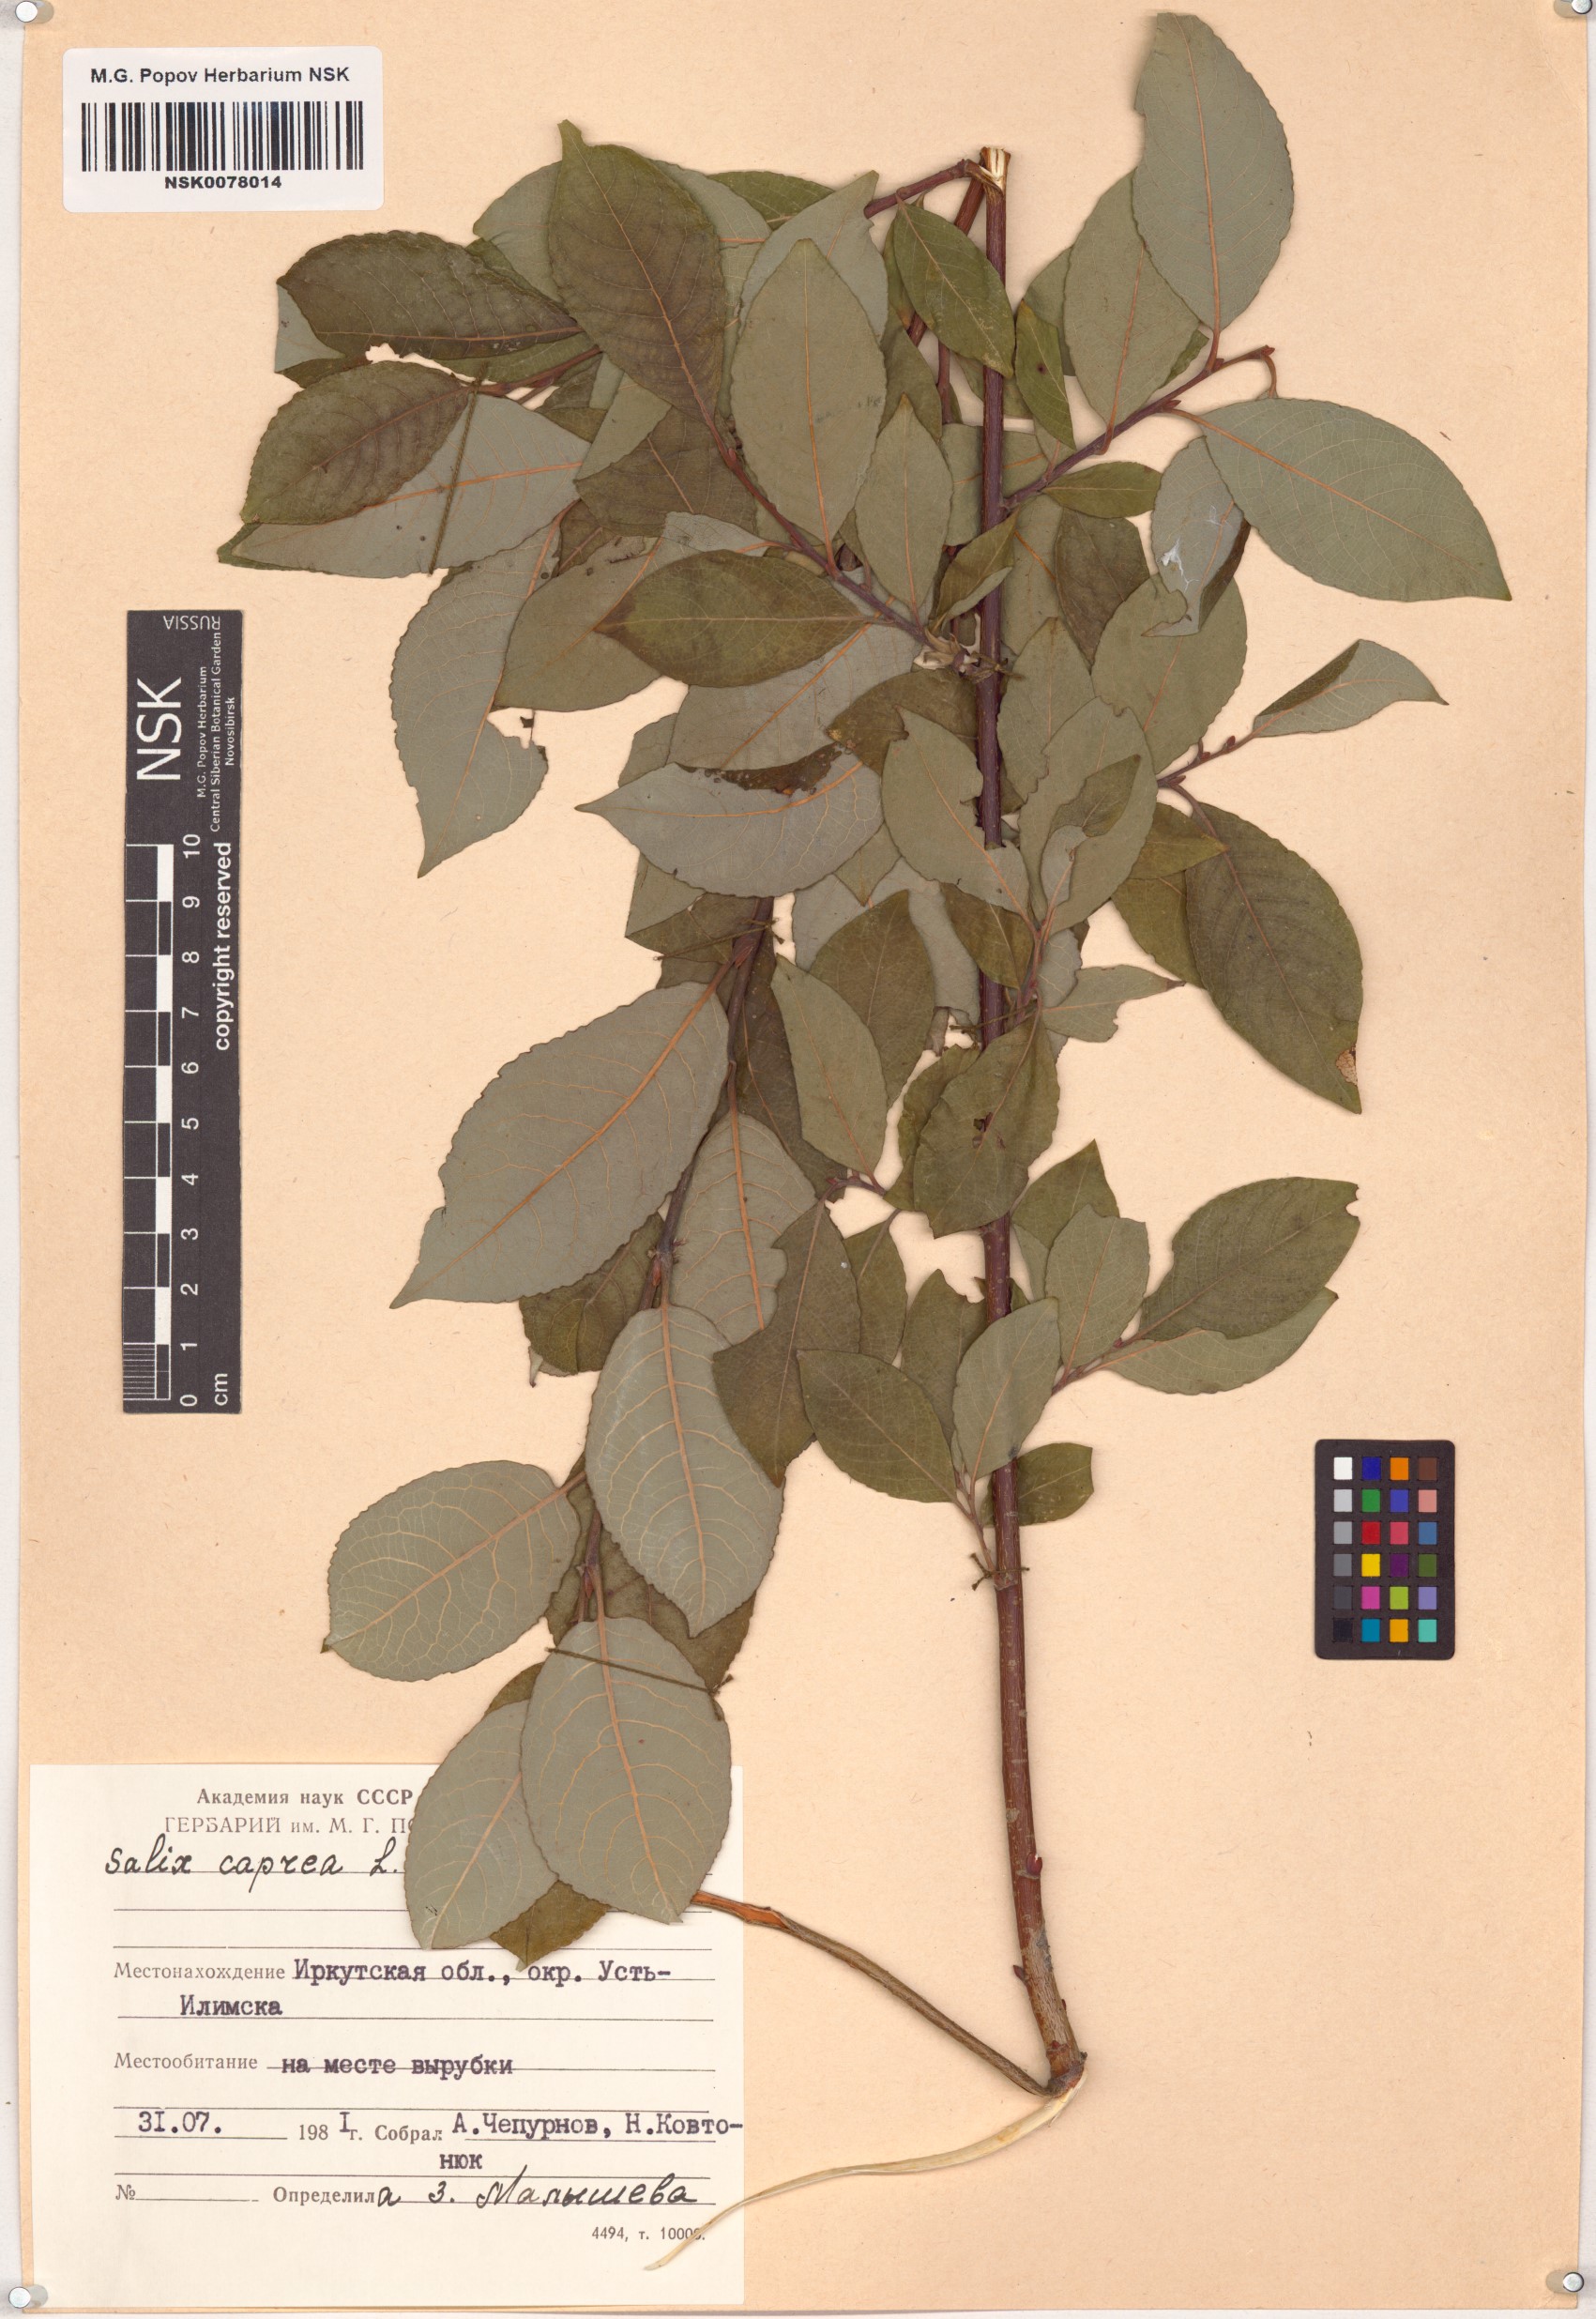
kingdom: Plantae
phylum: Tracheophyta
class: Magnoliopsida
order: Malpighiales
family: Salicaceae
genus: Salix
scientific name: Salix caprea
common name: Goat willow
